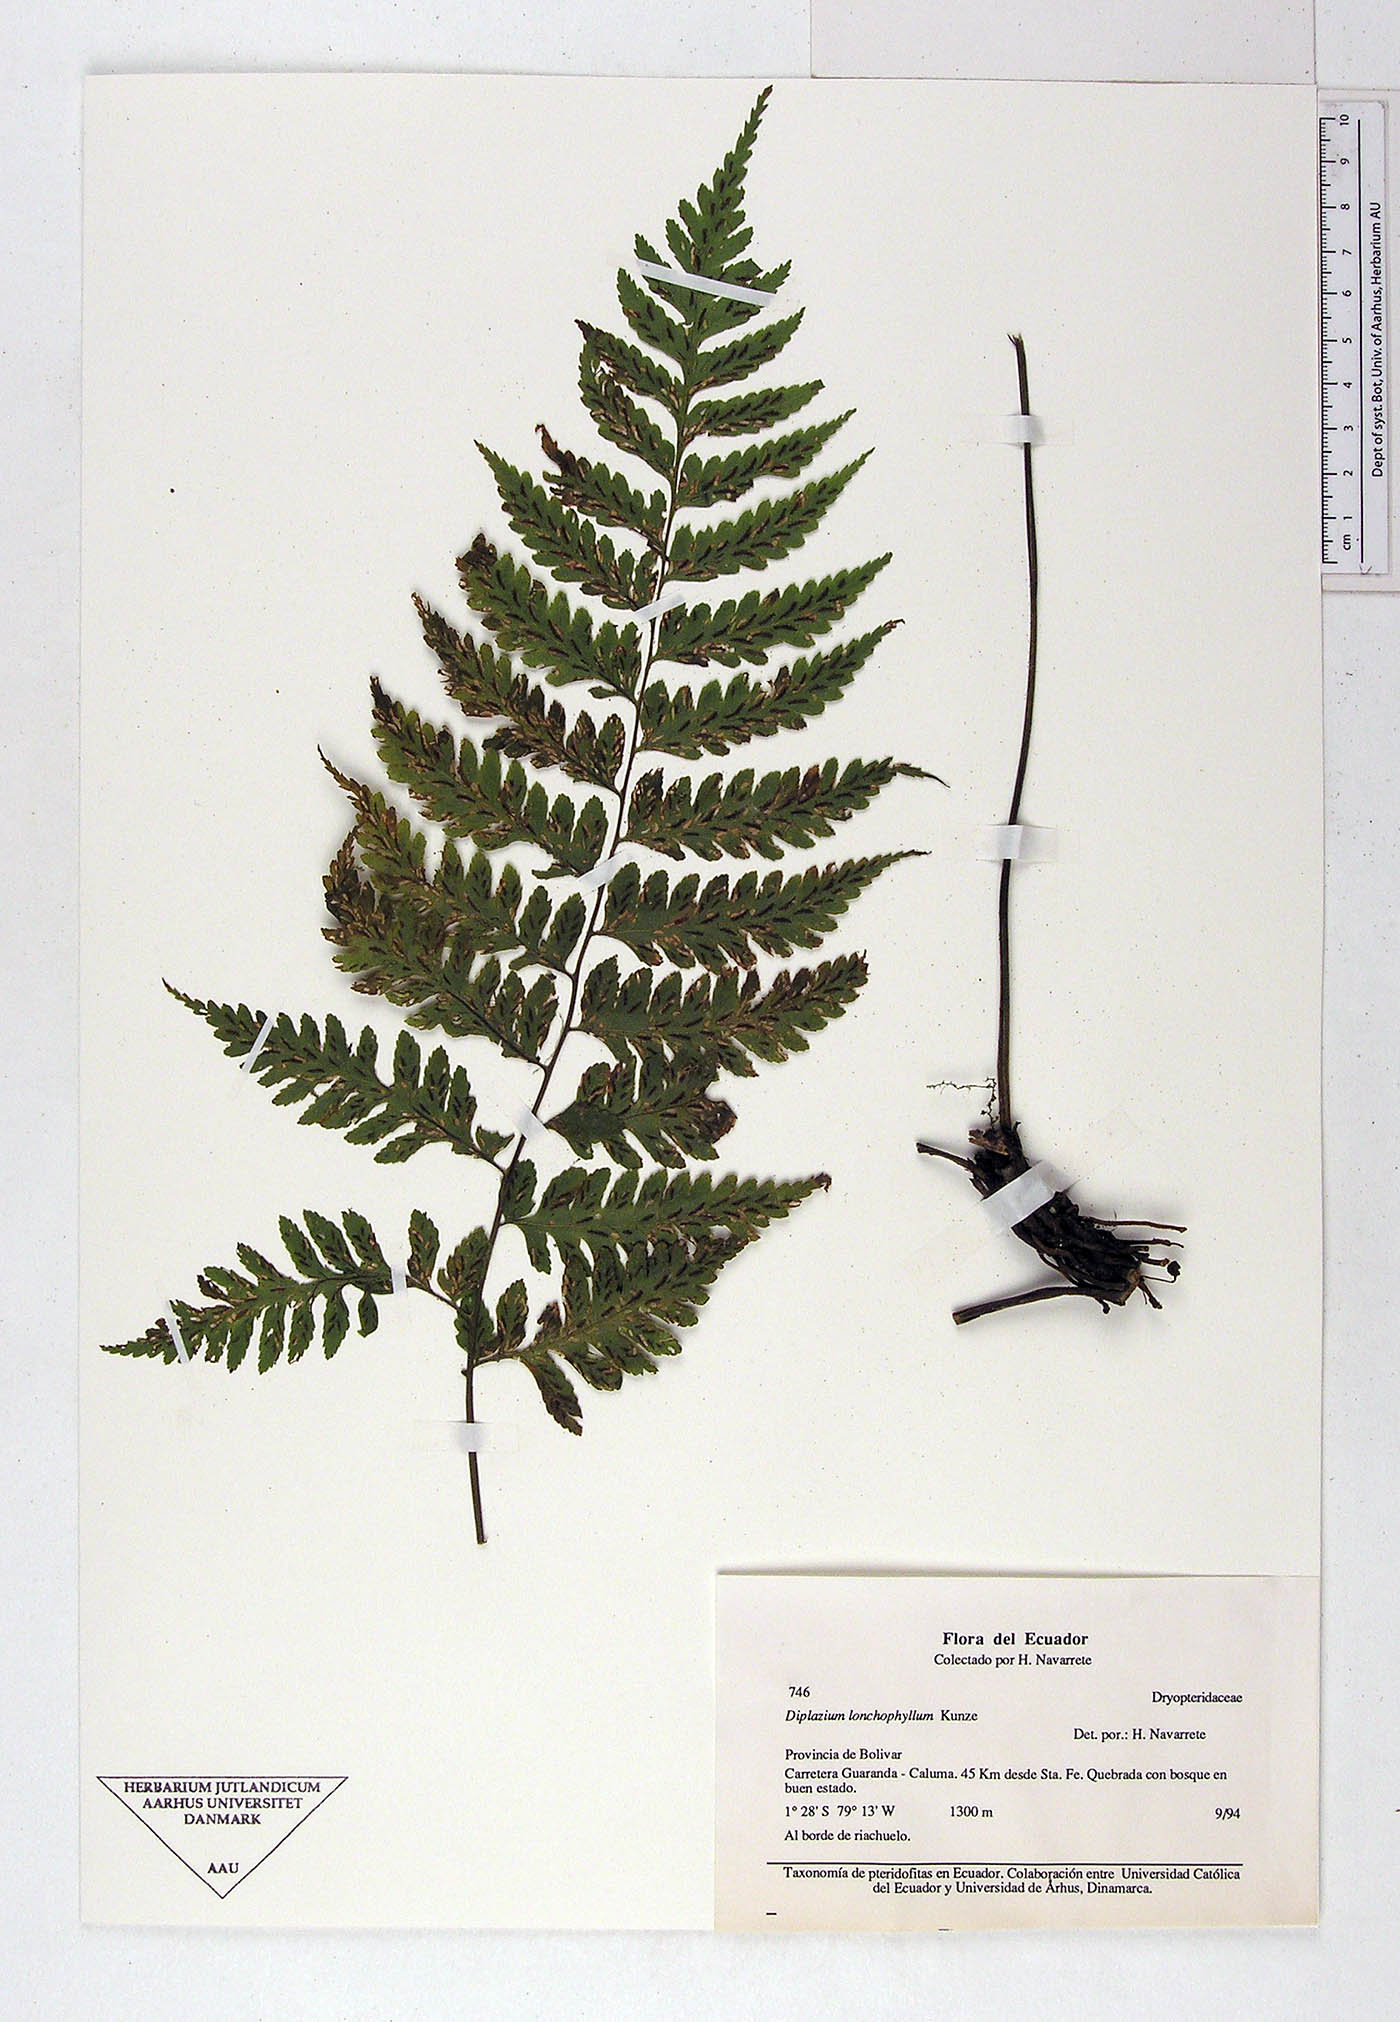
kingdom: Plantae
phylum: Tracheophyta
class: Polypodiopsida
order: Polypodiales
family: Athyriaceae
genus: Diplazium
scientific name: Diplazium
